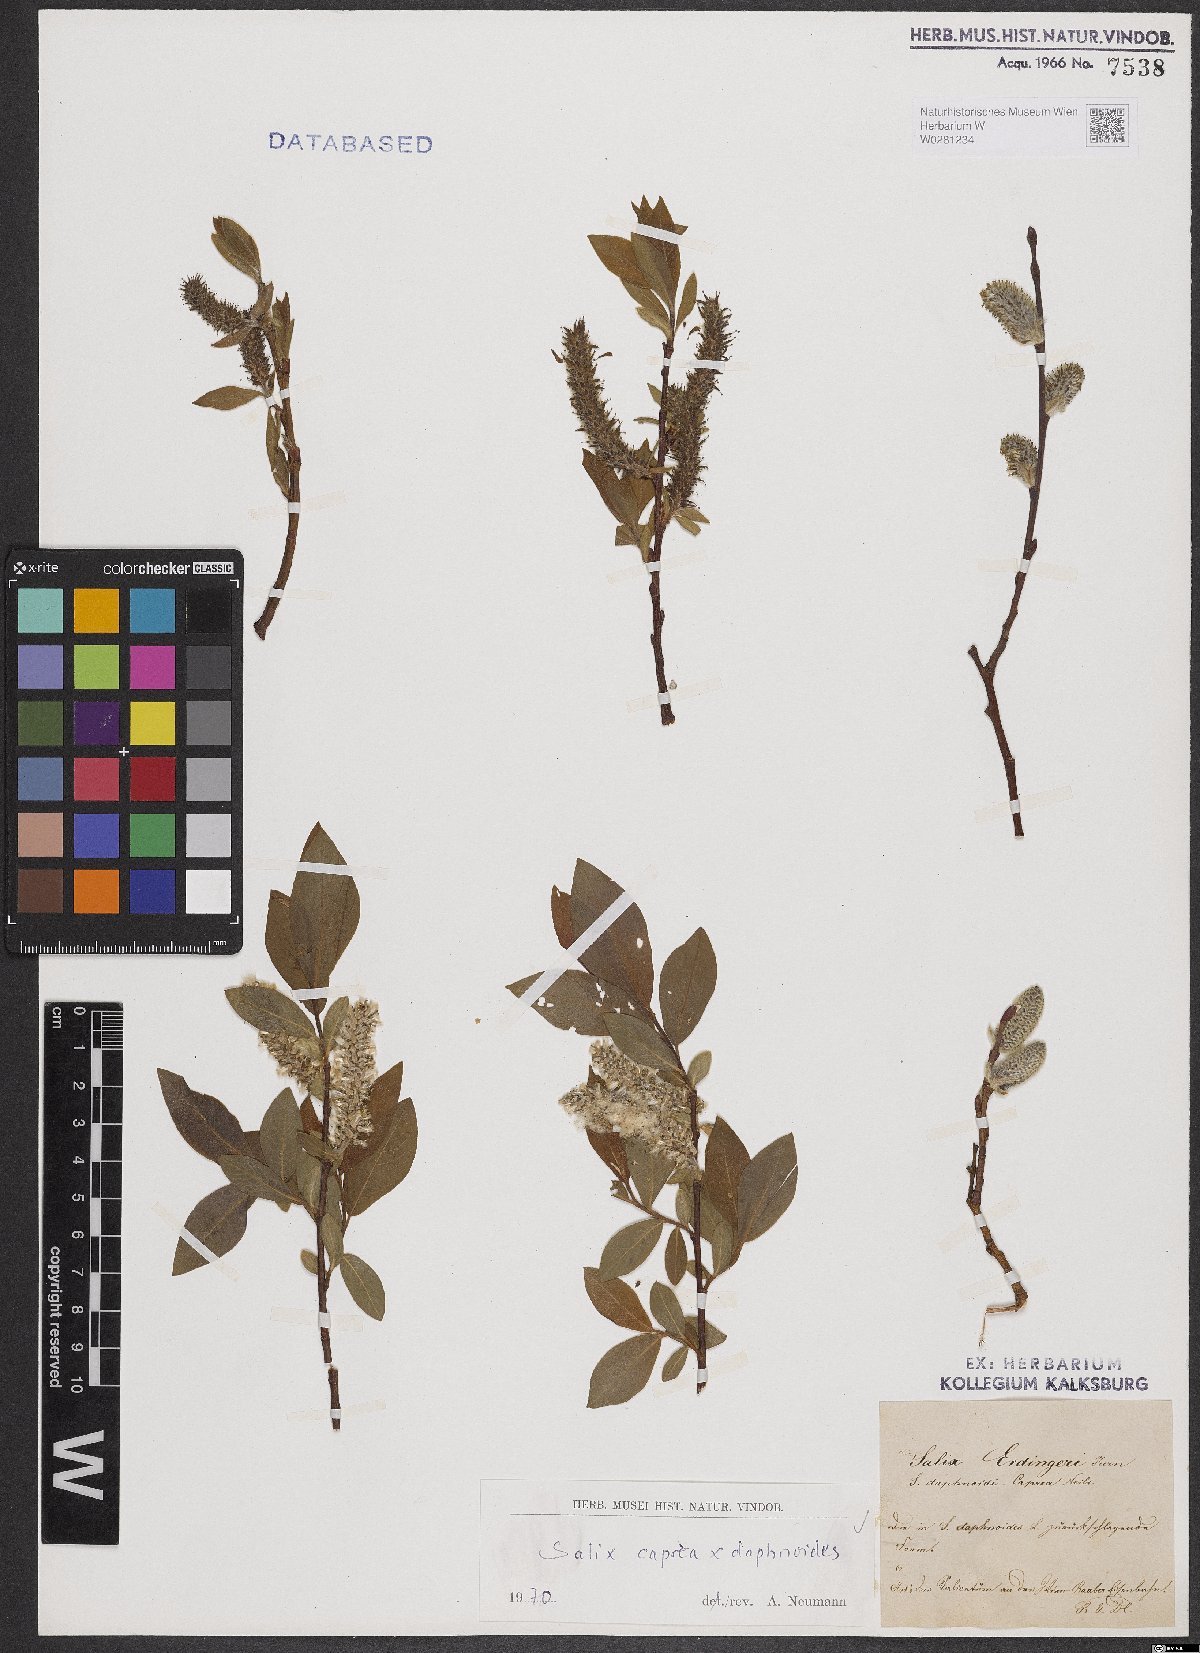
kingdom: Plantae
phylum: Tracheophyta
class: Magnoliopsida
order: Malpighiales
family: Salicaceae
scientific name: Salicaceae
